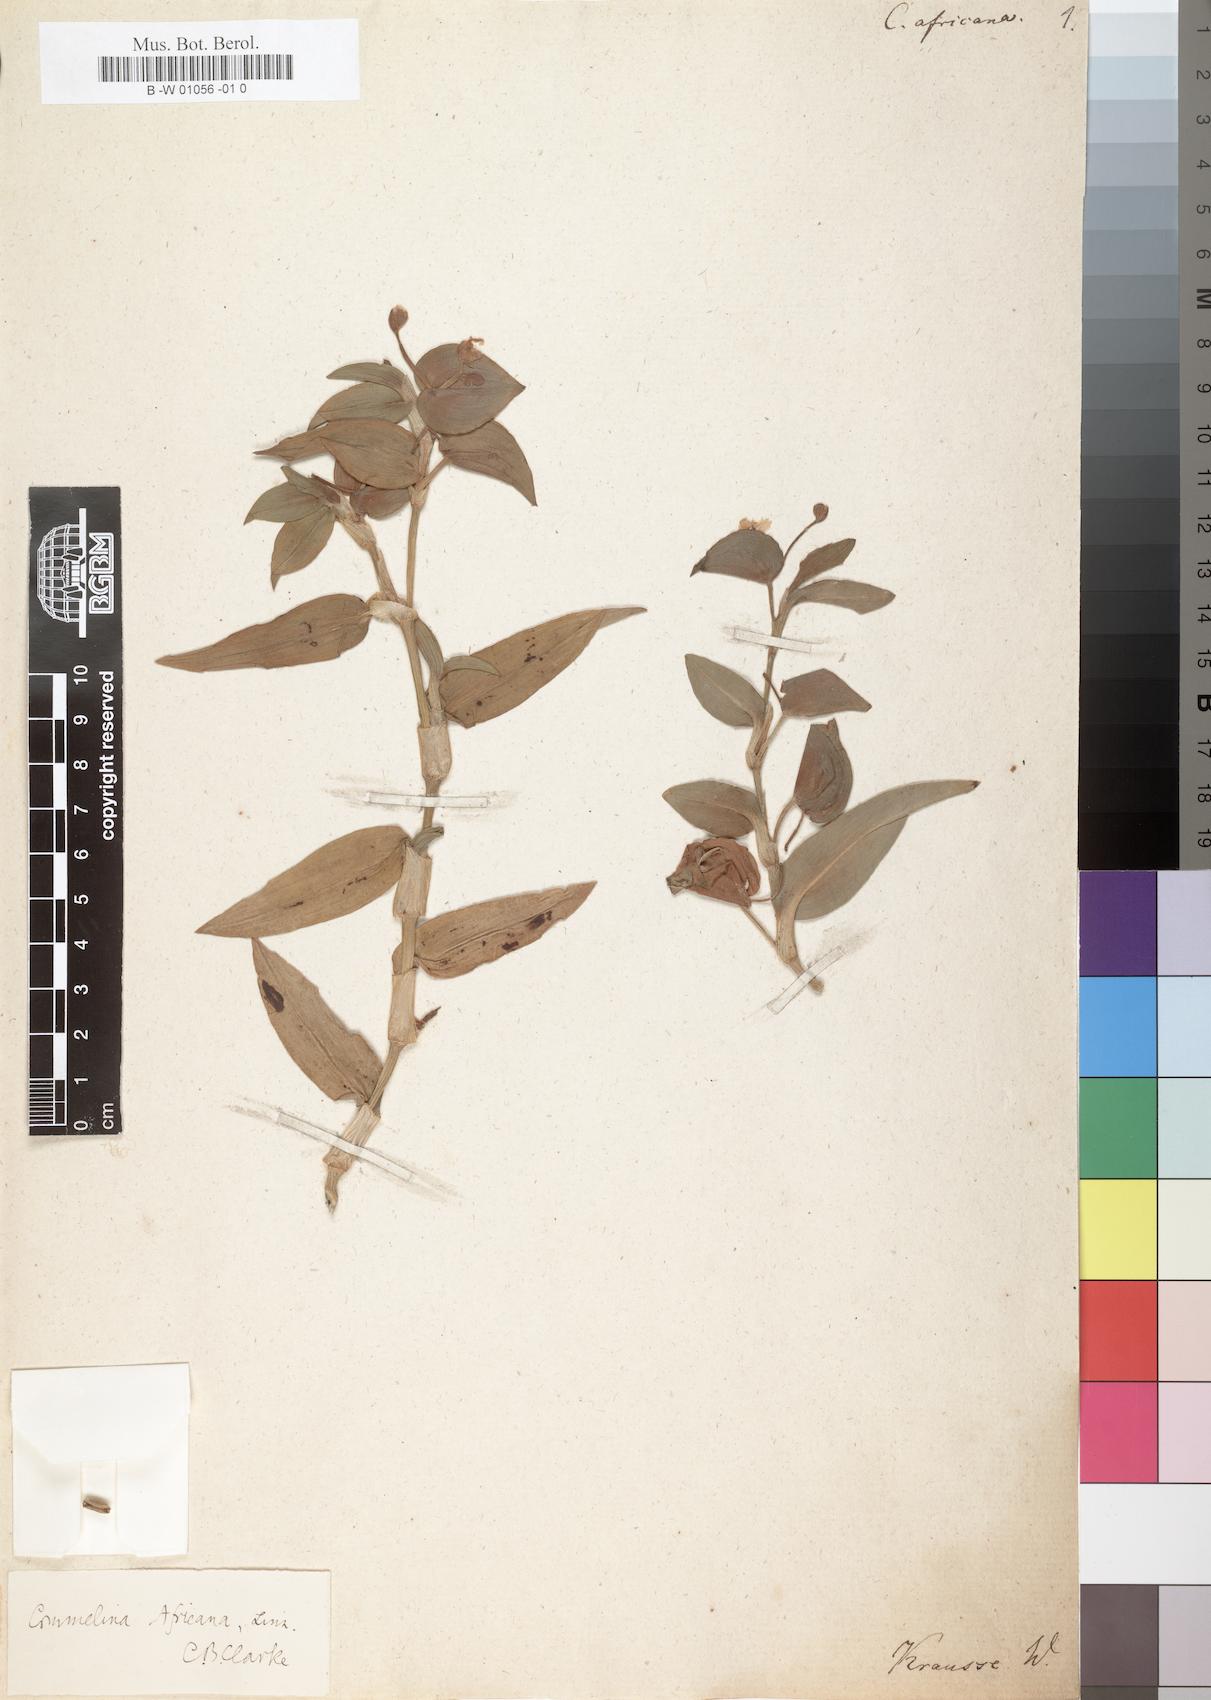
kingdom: Plantae
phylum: Tracheophyta
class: Liliopsida
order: Commelinales
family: Commelinaceae
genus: Commelina
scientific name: Commelina africana
